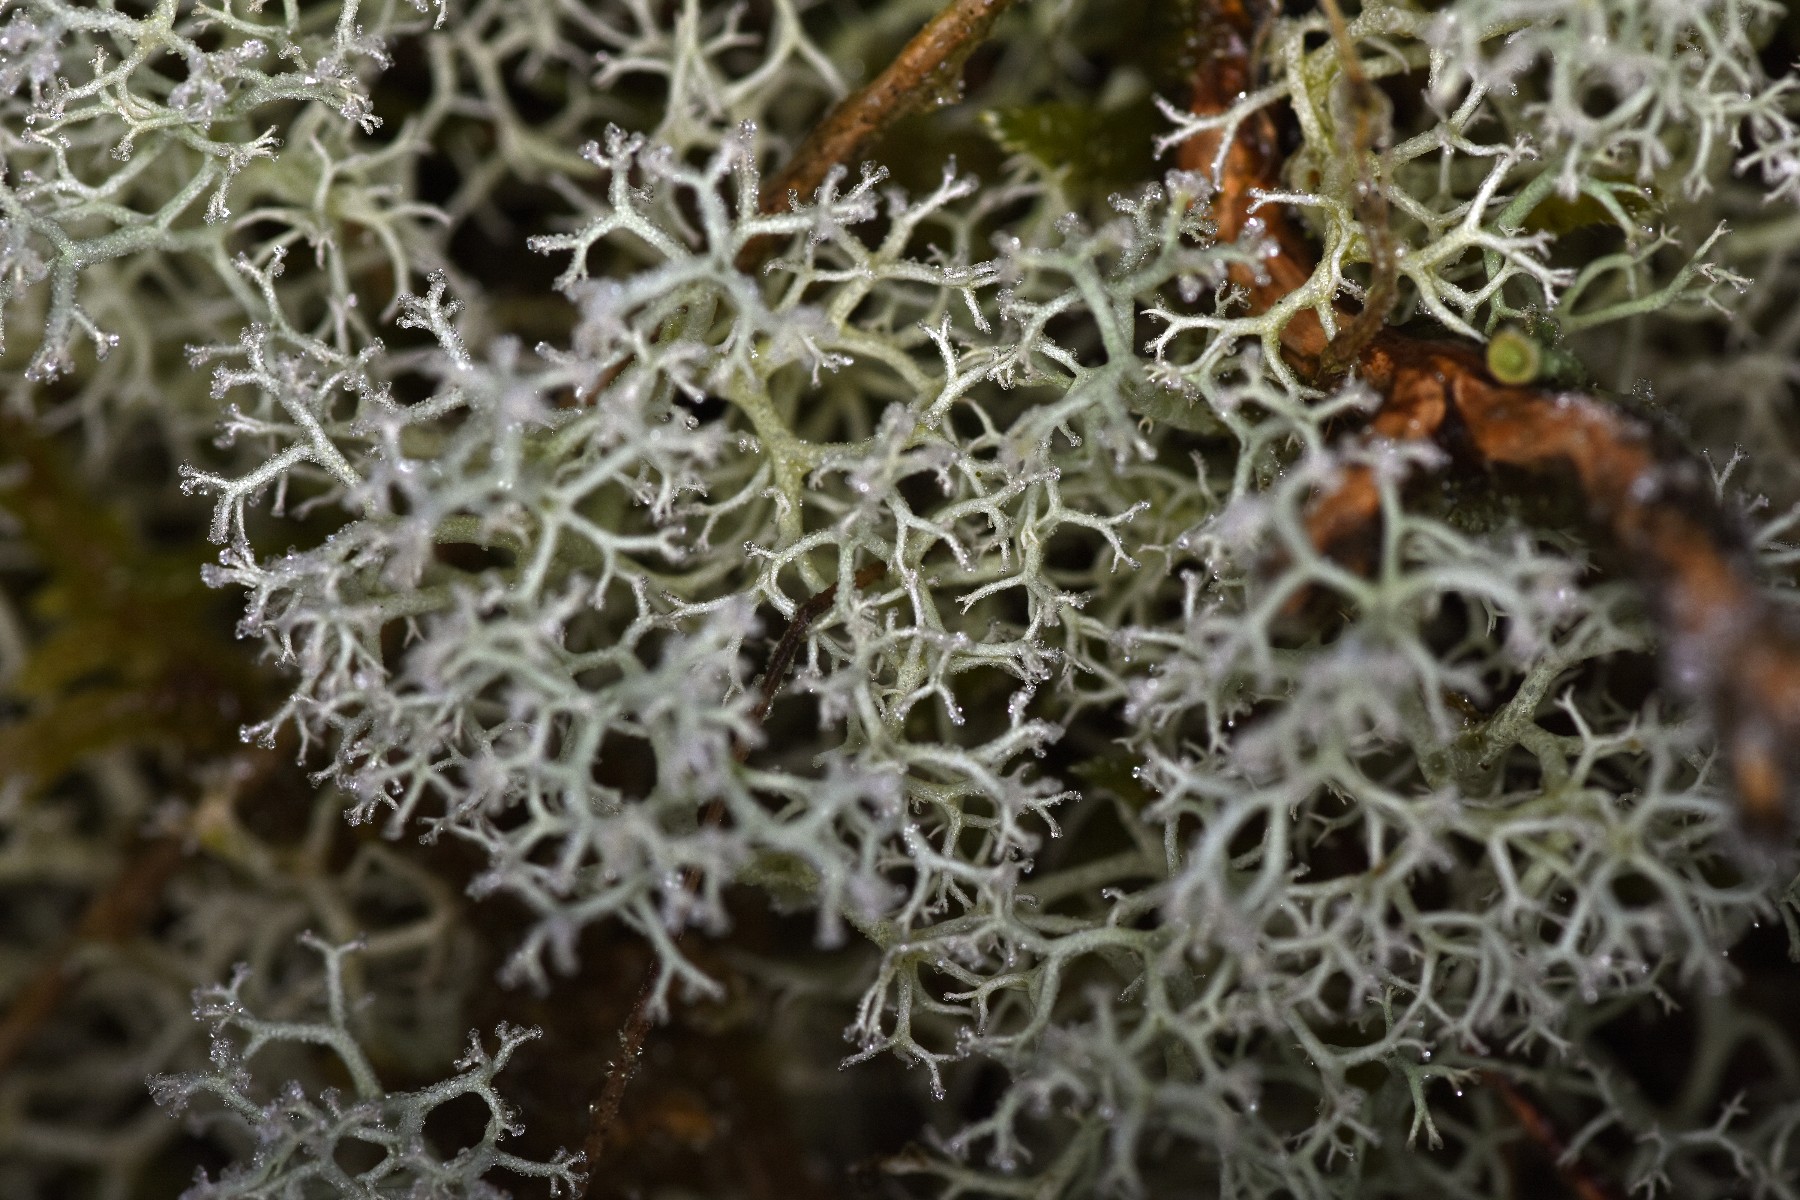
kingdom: Fungi
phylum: Ascomycota
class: Lecanoromycetes
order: Lecanorales
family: Cladoniaceae
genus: Cladonia
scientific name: Cladonia portentosa
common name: hede-rensdyrlav
